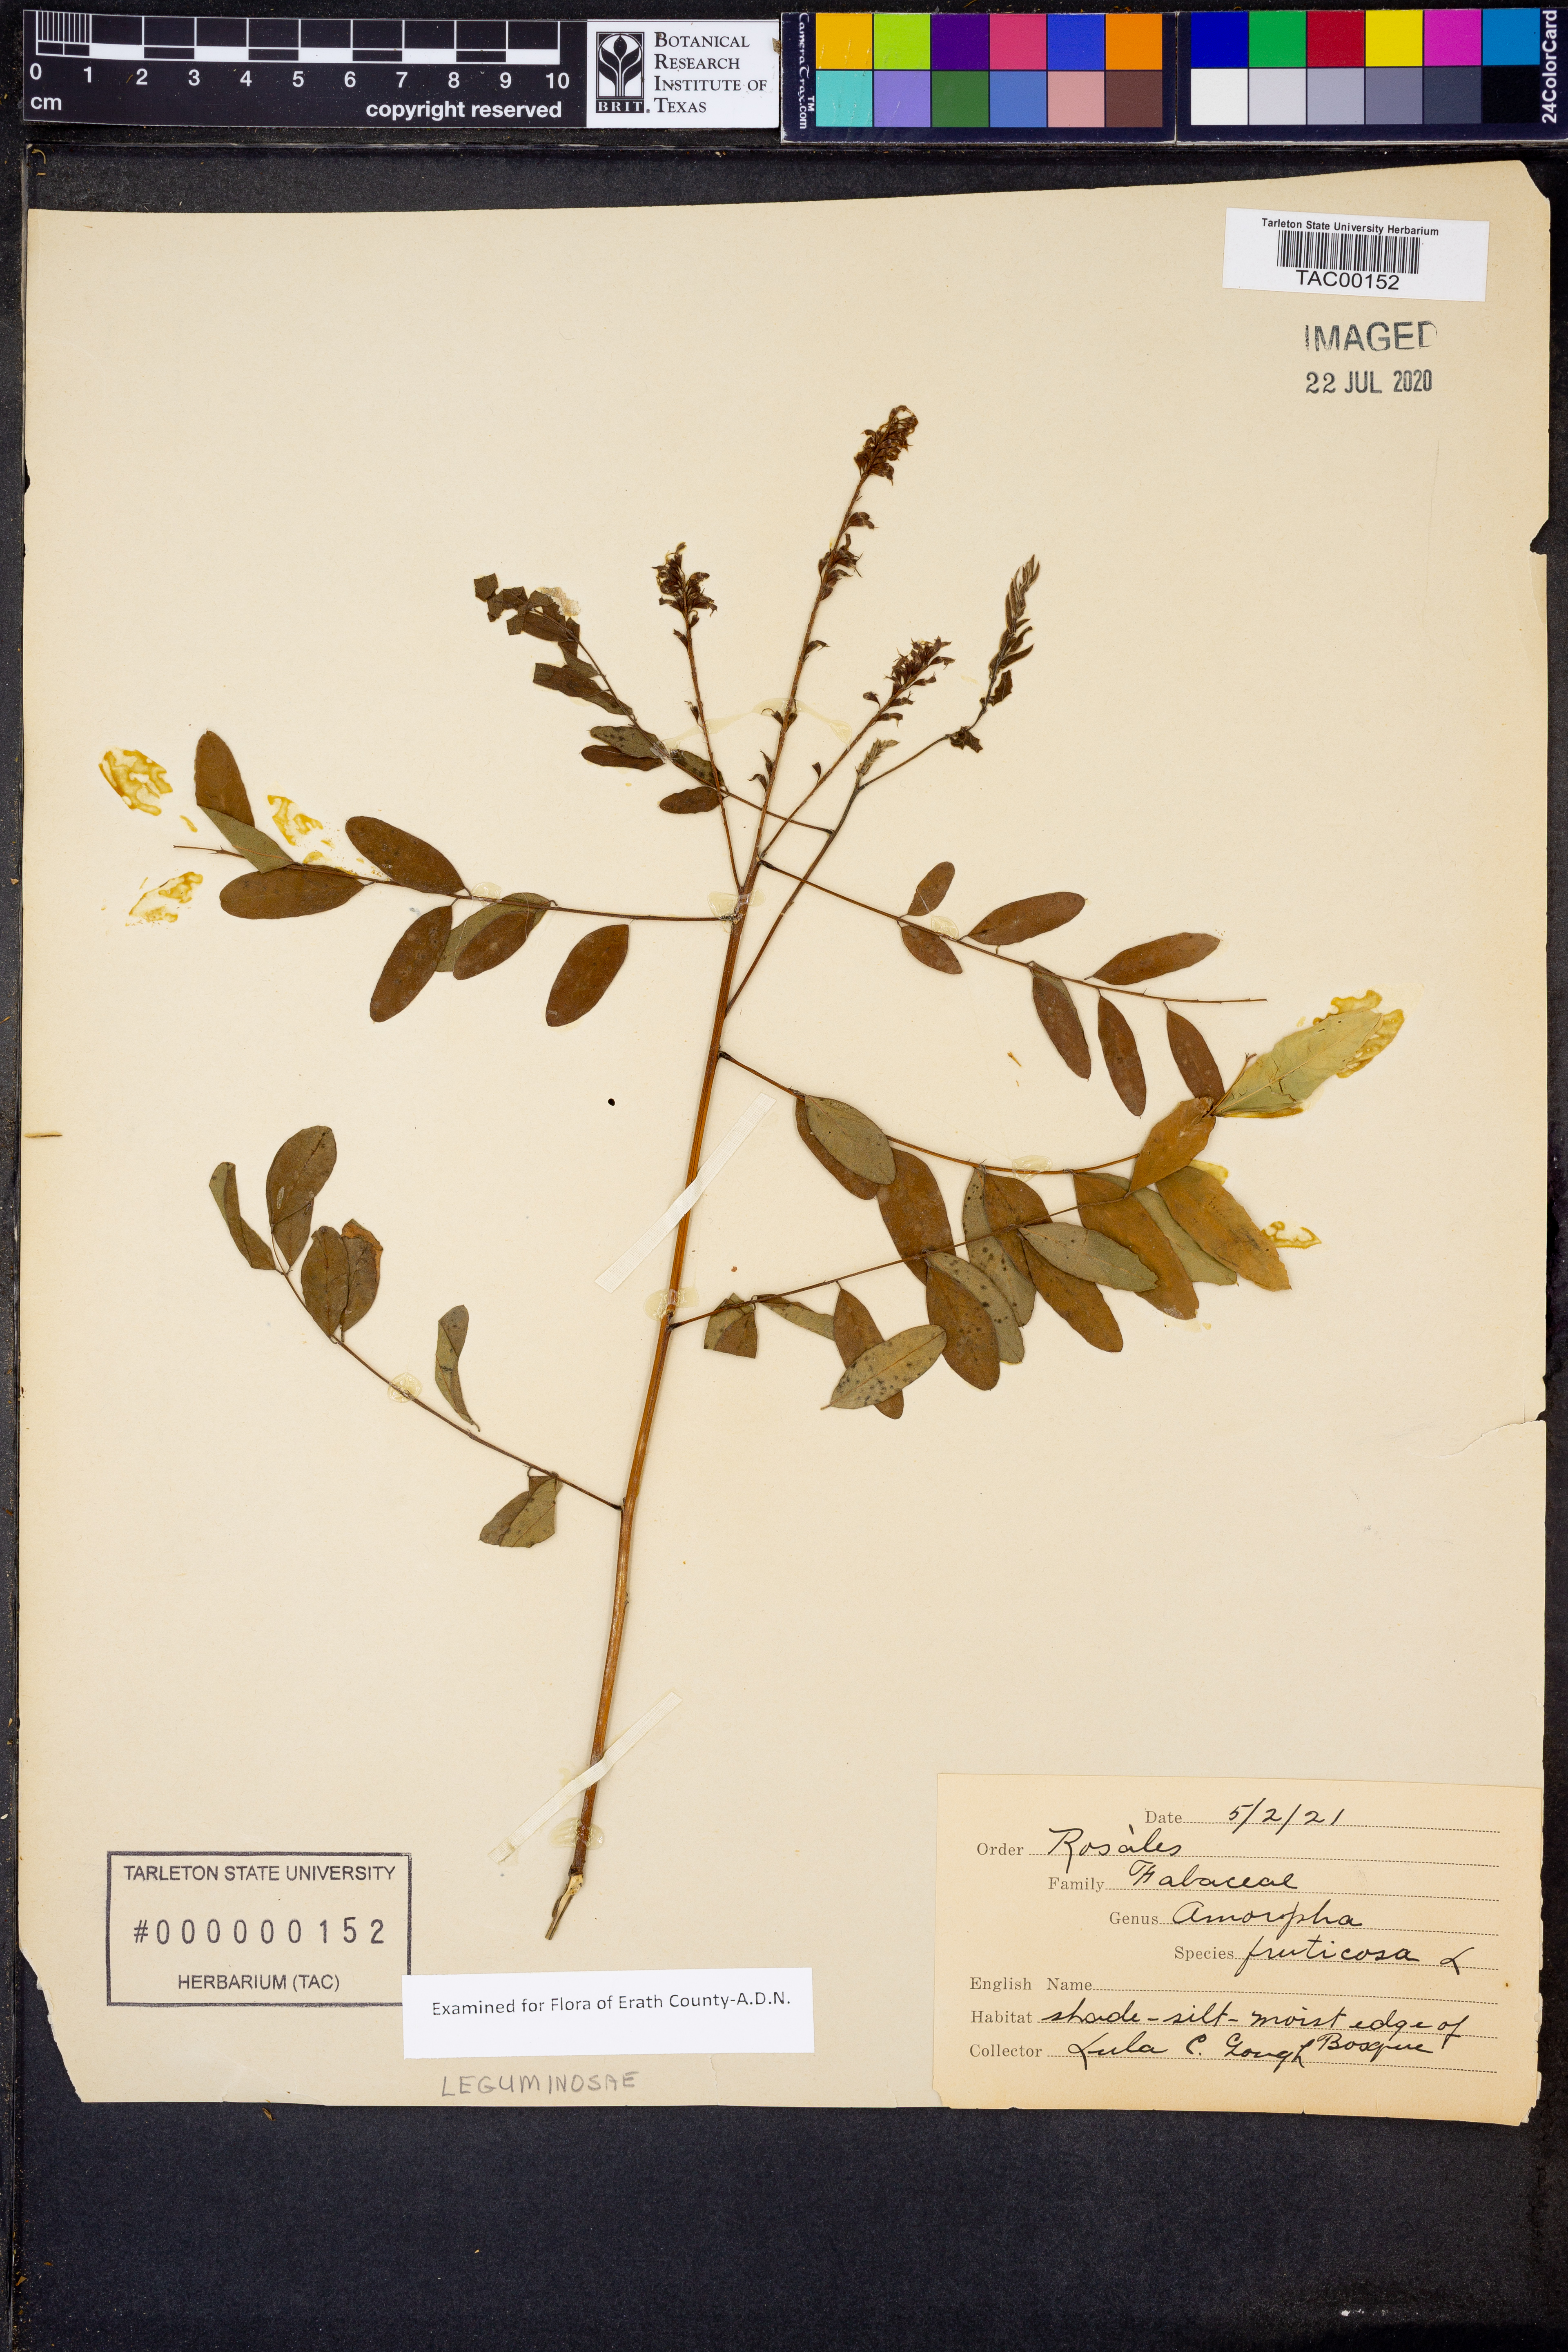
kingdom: Plantae
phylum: Tracheophyta
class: Magnoliopsida
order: Fabales
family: Fabaceae
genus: Amorpha
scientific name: Amorpha fruticosa
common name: False indigo
